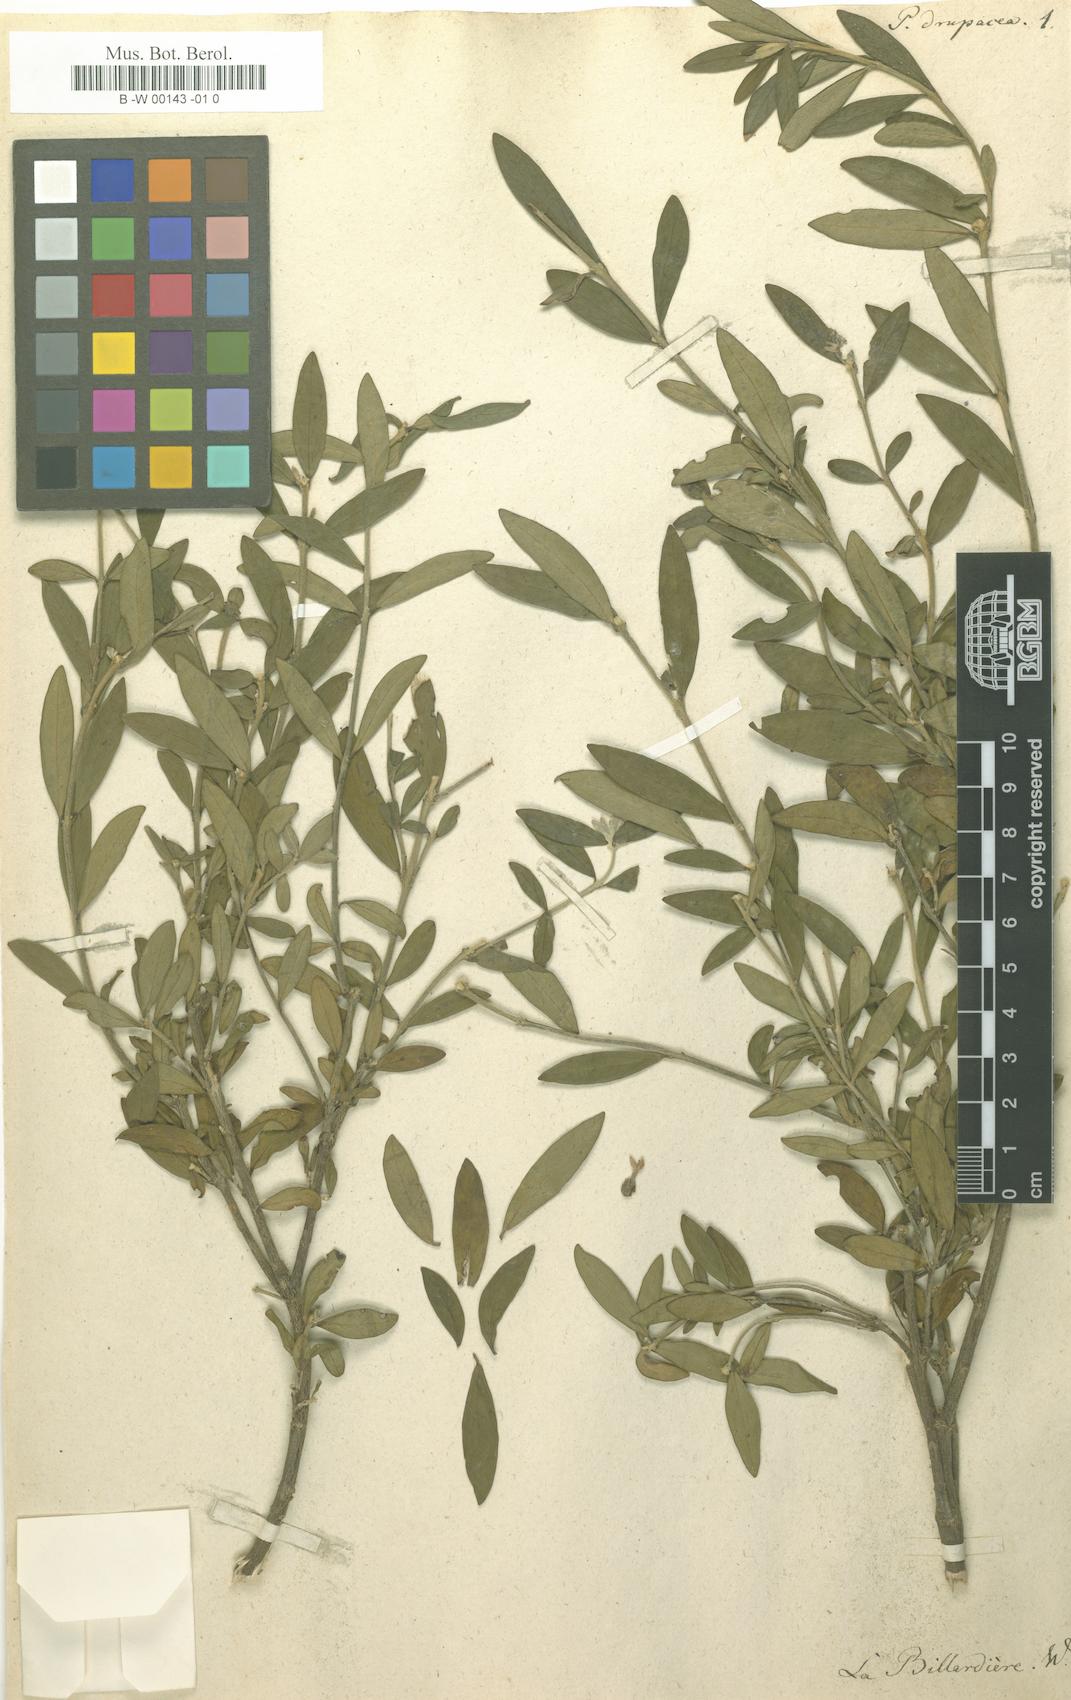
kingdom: Plantae
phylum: Tracheophyta
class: Magnoliopsida
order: Malvales
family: Thymelaeaceae
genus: Pimelea
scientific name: Pimelea drupacea
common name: Cherry riceflower
